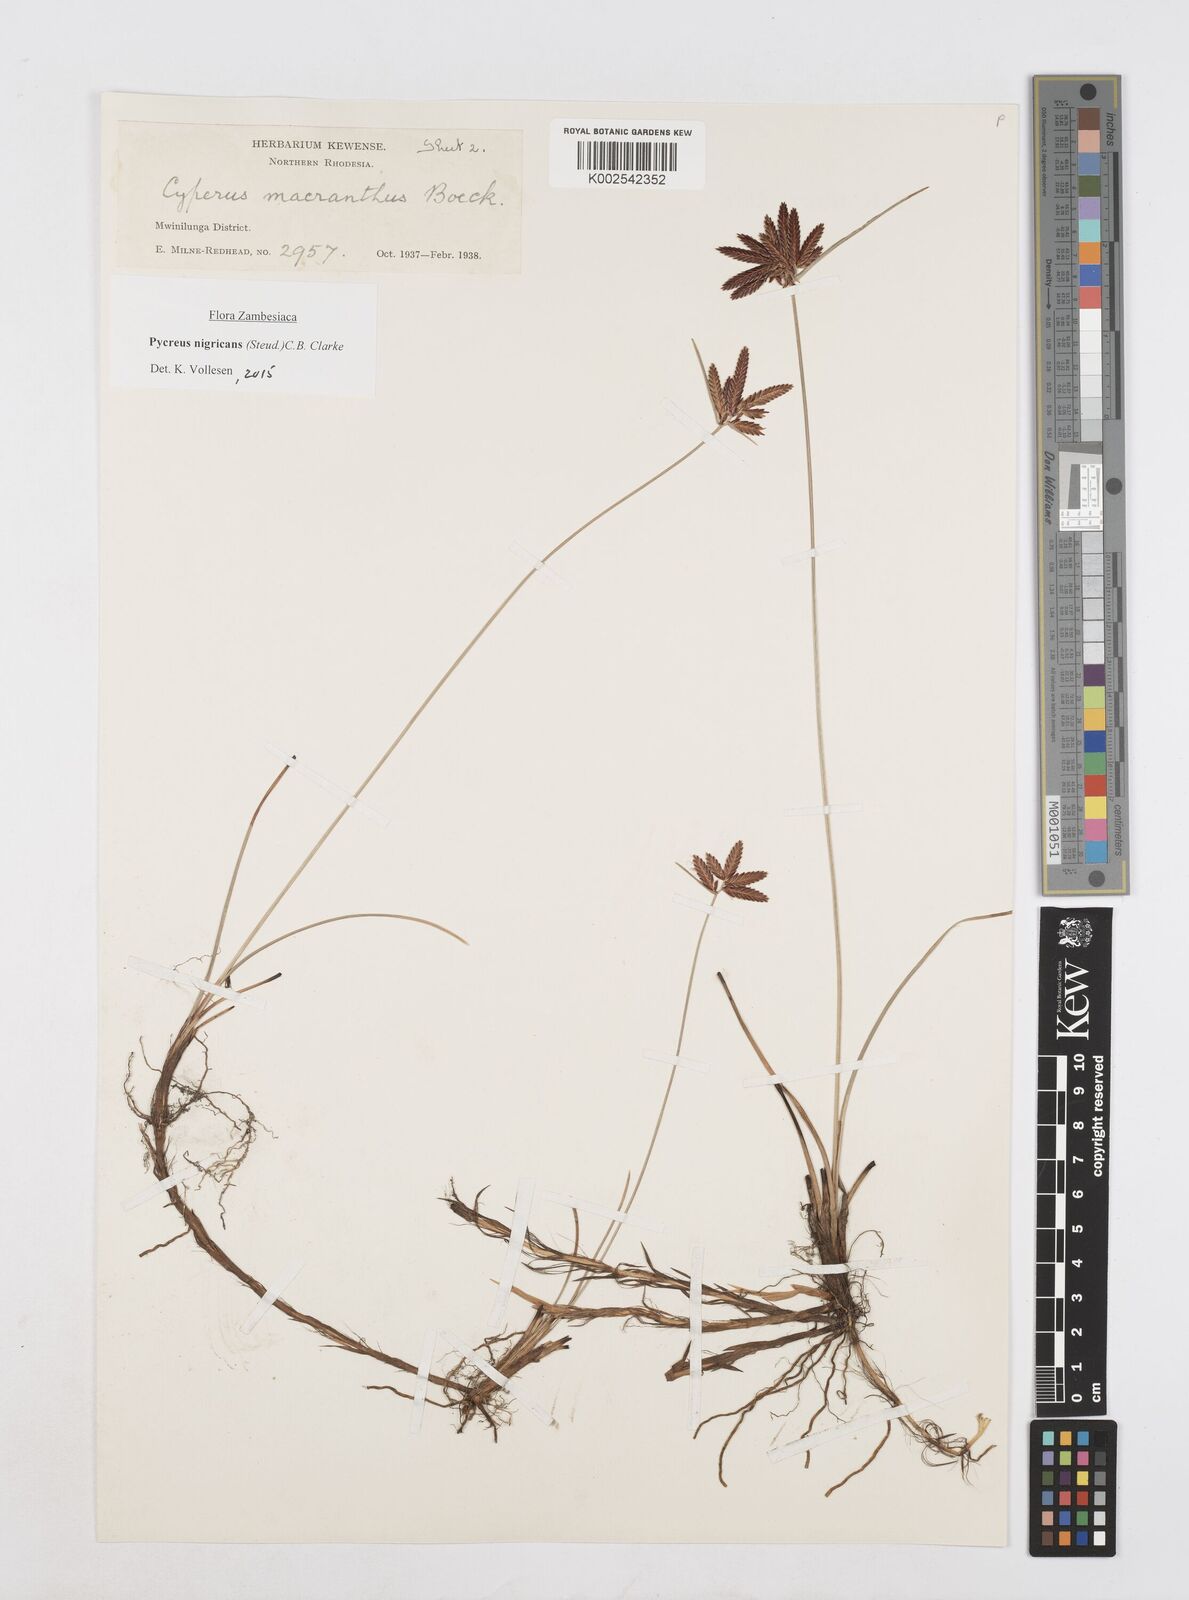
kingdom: Plantae
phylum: Tracheophyta
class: Liliopsida
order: Poales
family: Cyperaceae
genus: Cyperus
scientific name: Cyperus nigricans
